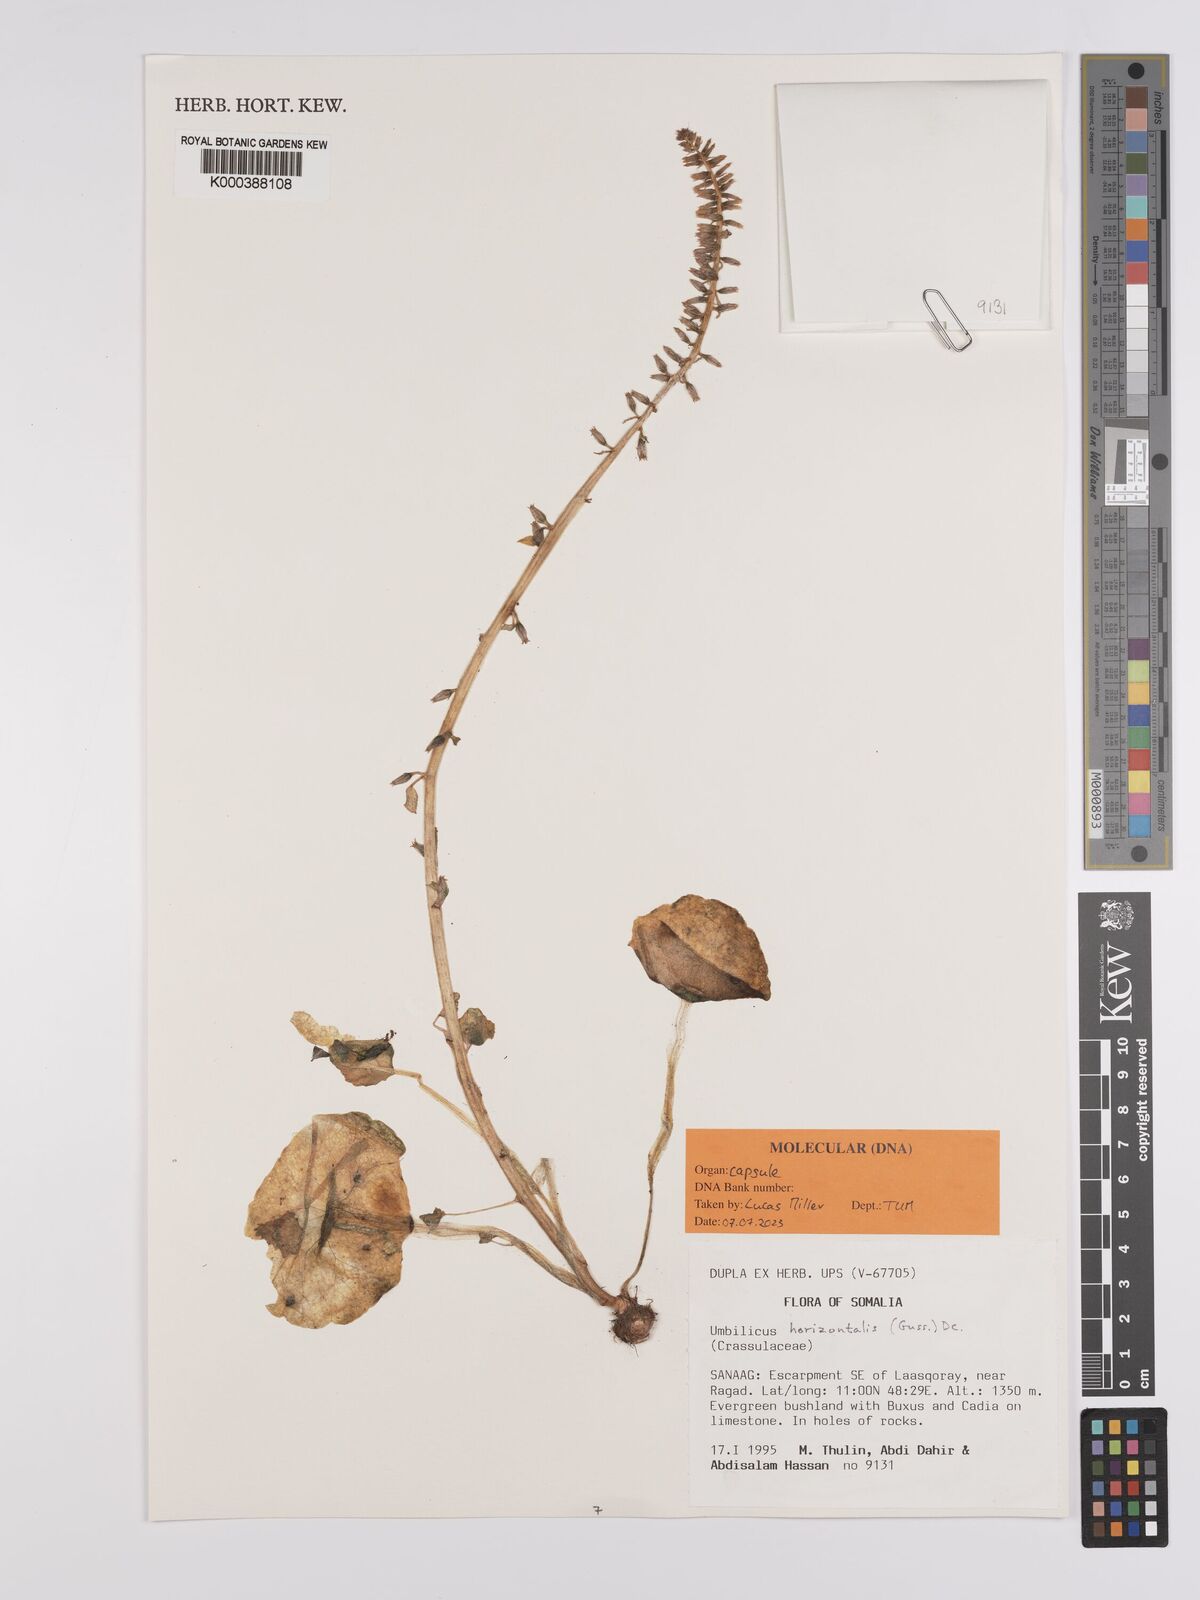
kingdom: Plantae
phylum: Tracheophyta
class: Magnoliopsida
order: Saxifragales
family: Crassulaceae
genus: Umbilicus
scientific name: Umbilicus horizontalis
